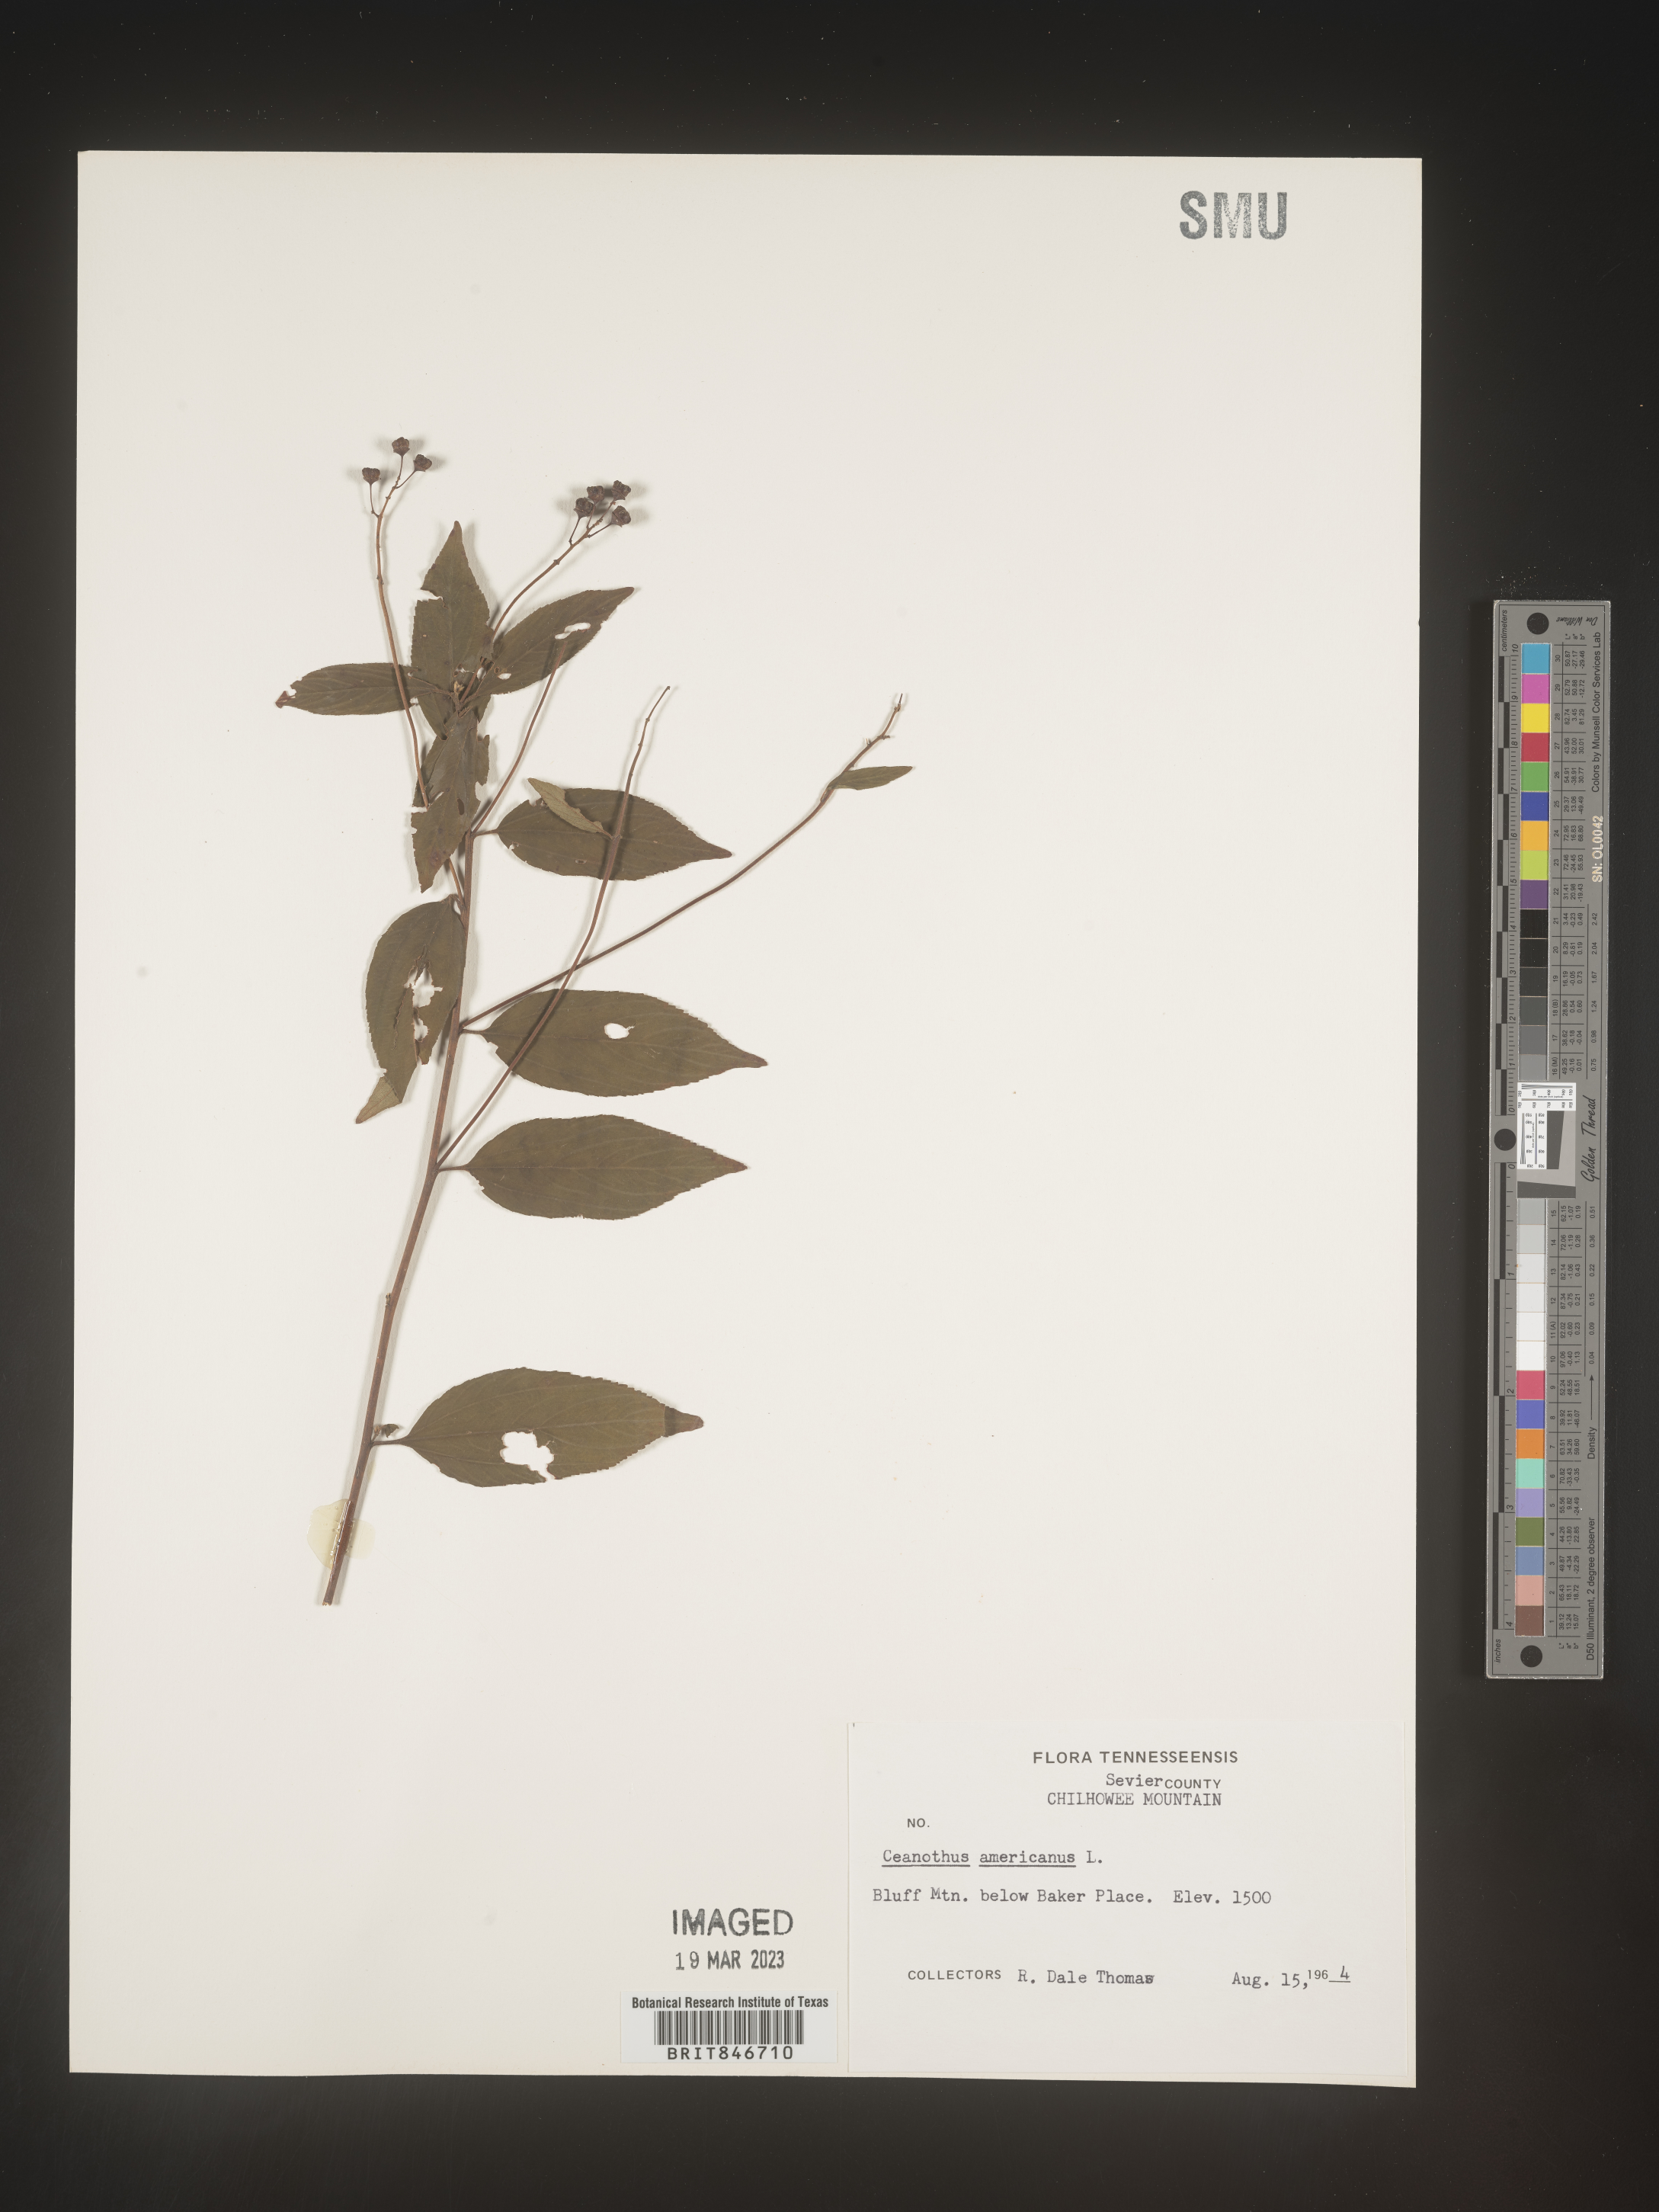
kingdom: Plantae
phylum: Tracheophyta
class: Magnoliopsida
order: Rosales
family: Rhamnaceae
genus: Ceanothus
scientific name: Ceanothus americanus
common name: Redroot
